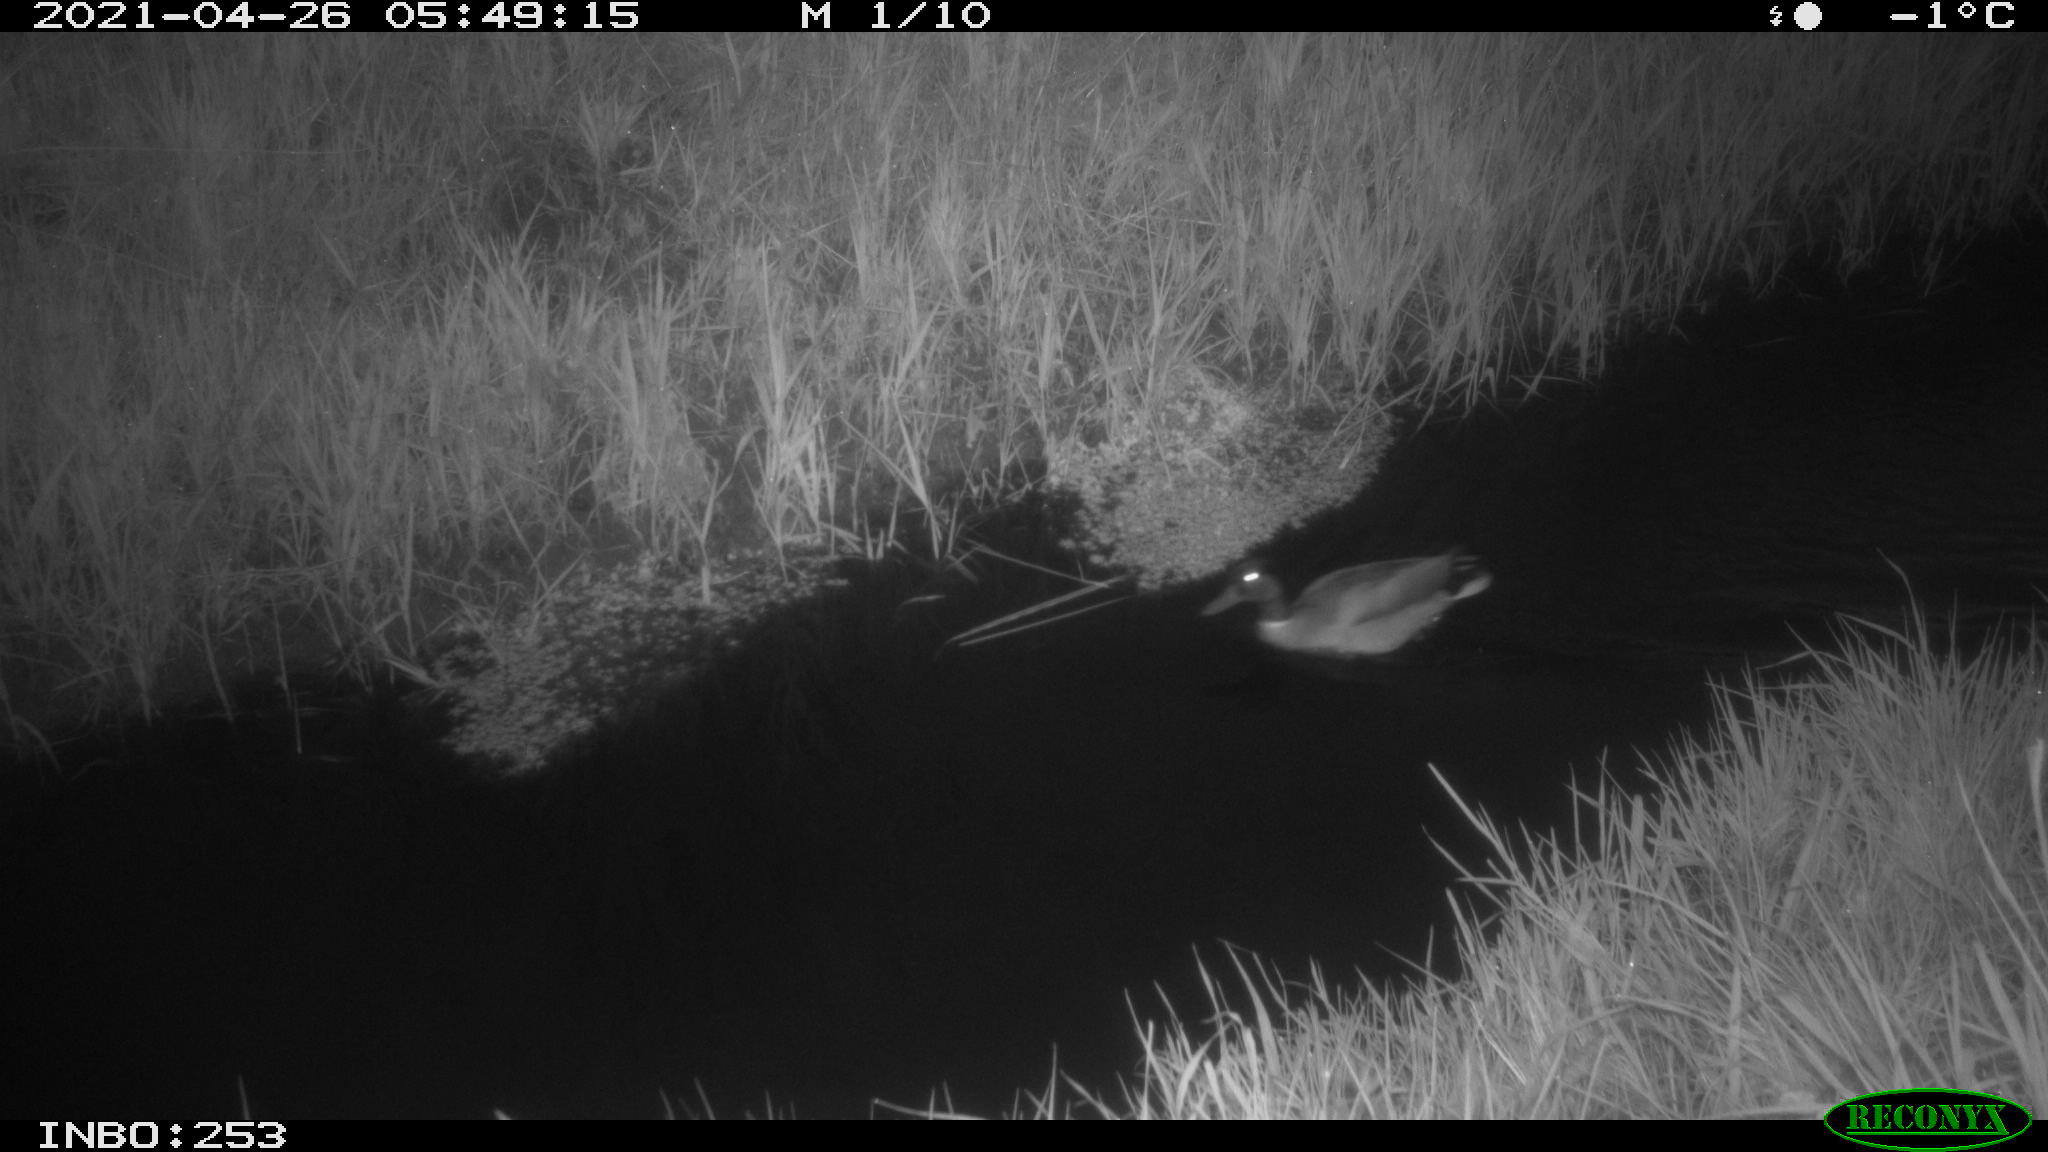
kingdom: Animalia
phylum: Chordata
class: Aves
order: Anseriformes
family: Anatidae
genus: Anas
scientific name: Anas platyrhynchos
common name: Mallard
